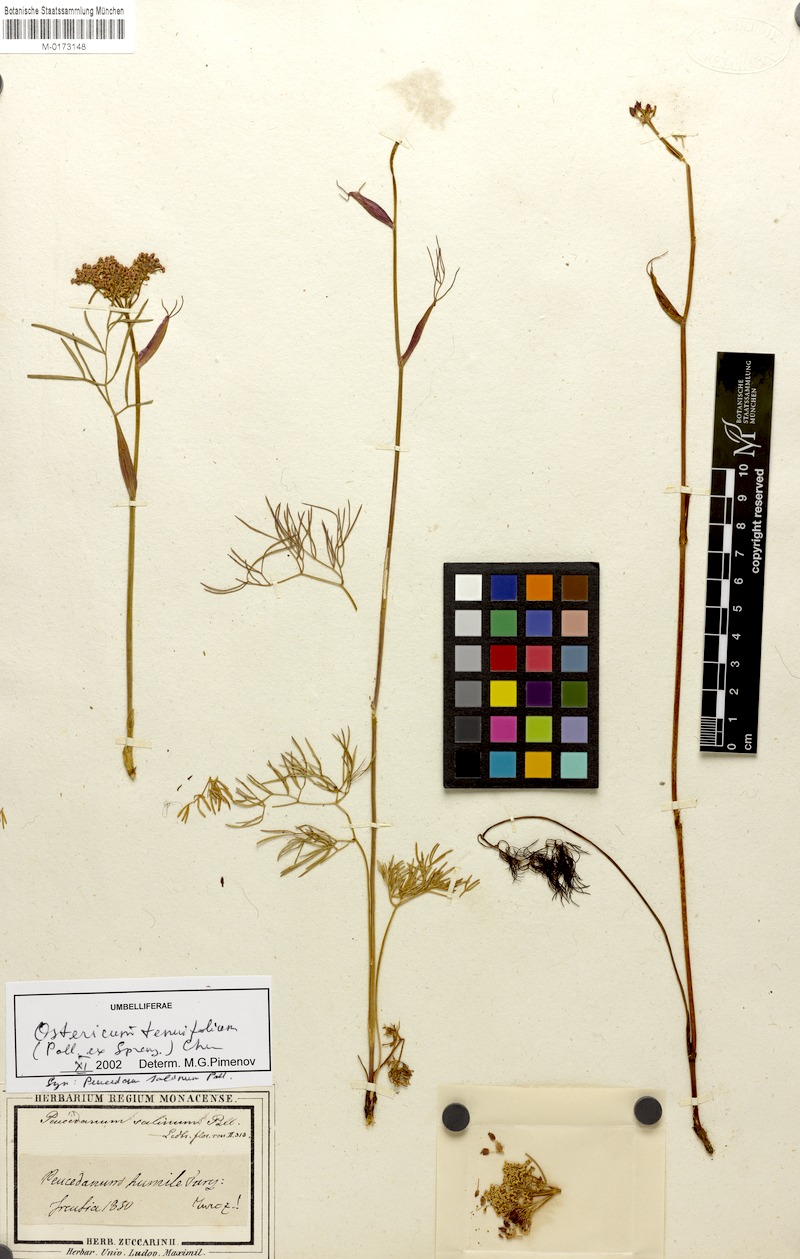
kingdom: Plantae
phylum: Tracheophyta
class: Magnoliopsida
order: Apiales
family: Apiaceae
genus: Ostericum
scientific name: Ostericum tenuifolium
